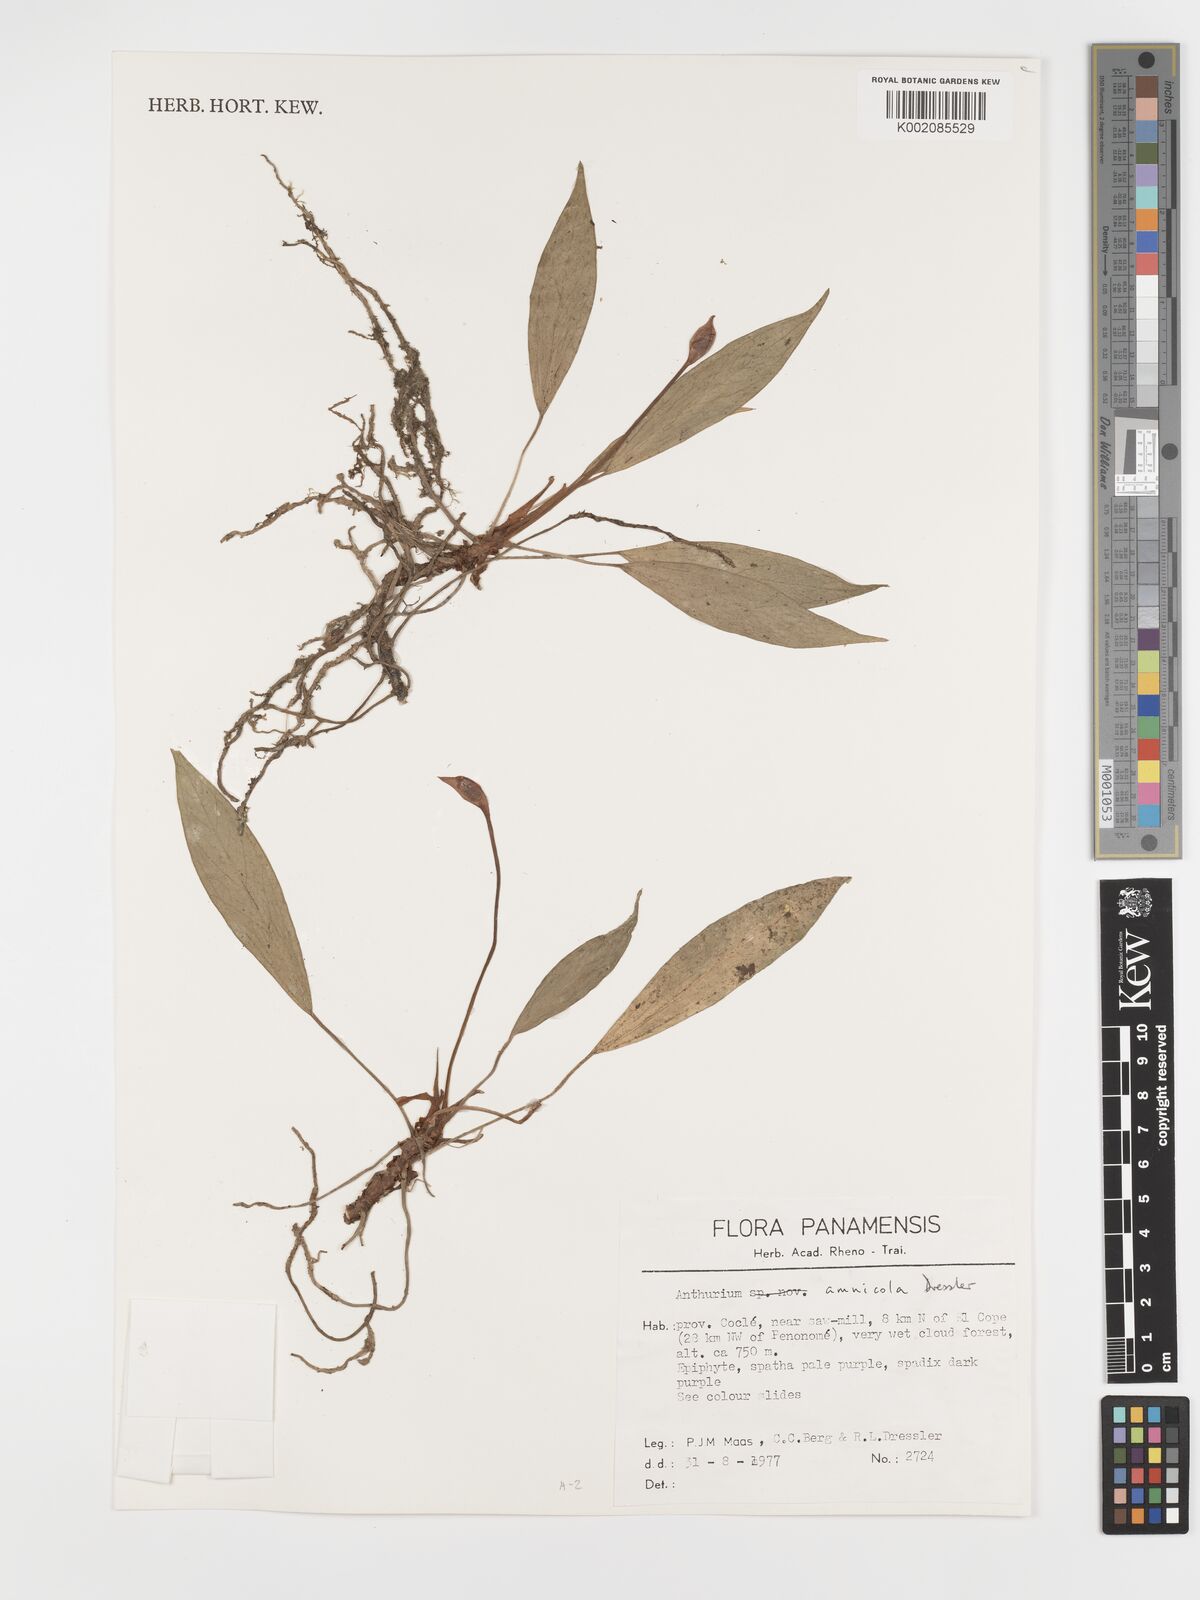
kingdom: Plantae
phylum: Tracheophyta
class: Liliopsida
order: Alismatales
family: Araceae
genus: Anthurium
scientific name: Anthurium amnicola
